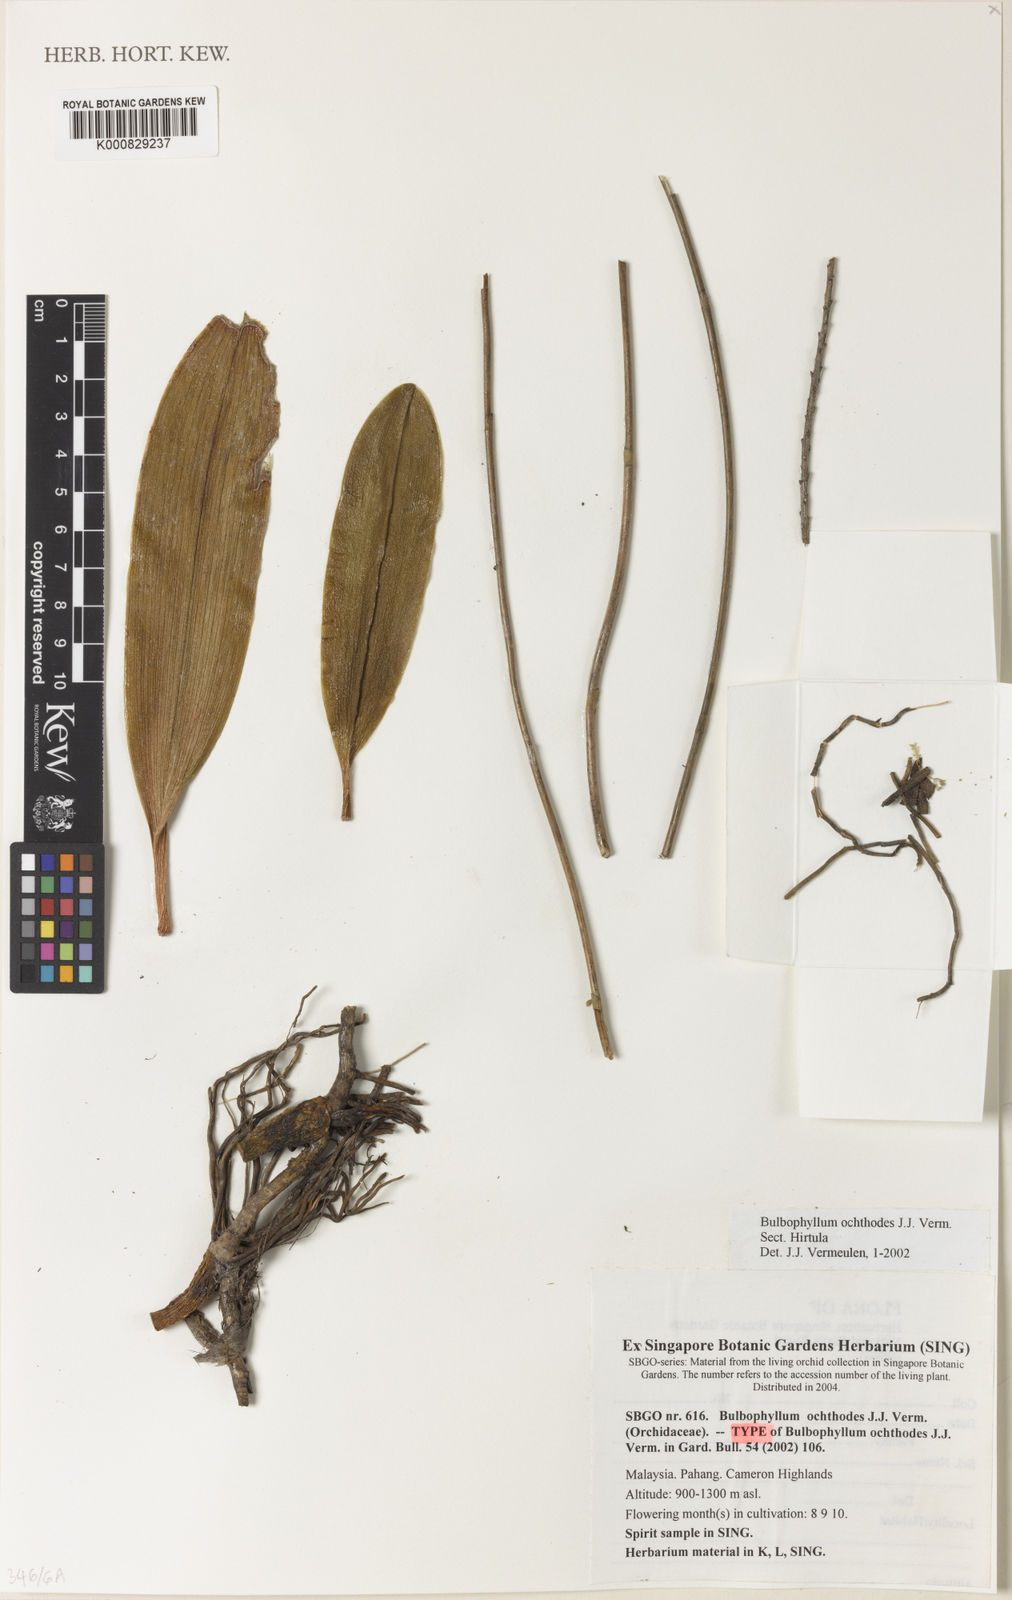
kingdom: Plantae
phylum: Tracheophyta
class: Liliopsida
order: Asparagales
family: Orchidaceae
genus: Bulbophyllum
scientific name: Bulbophyllum ochthodes
